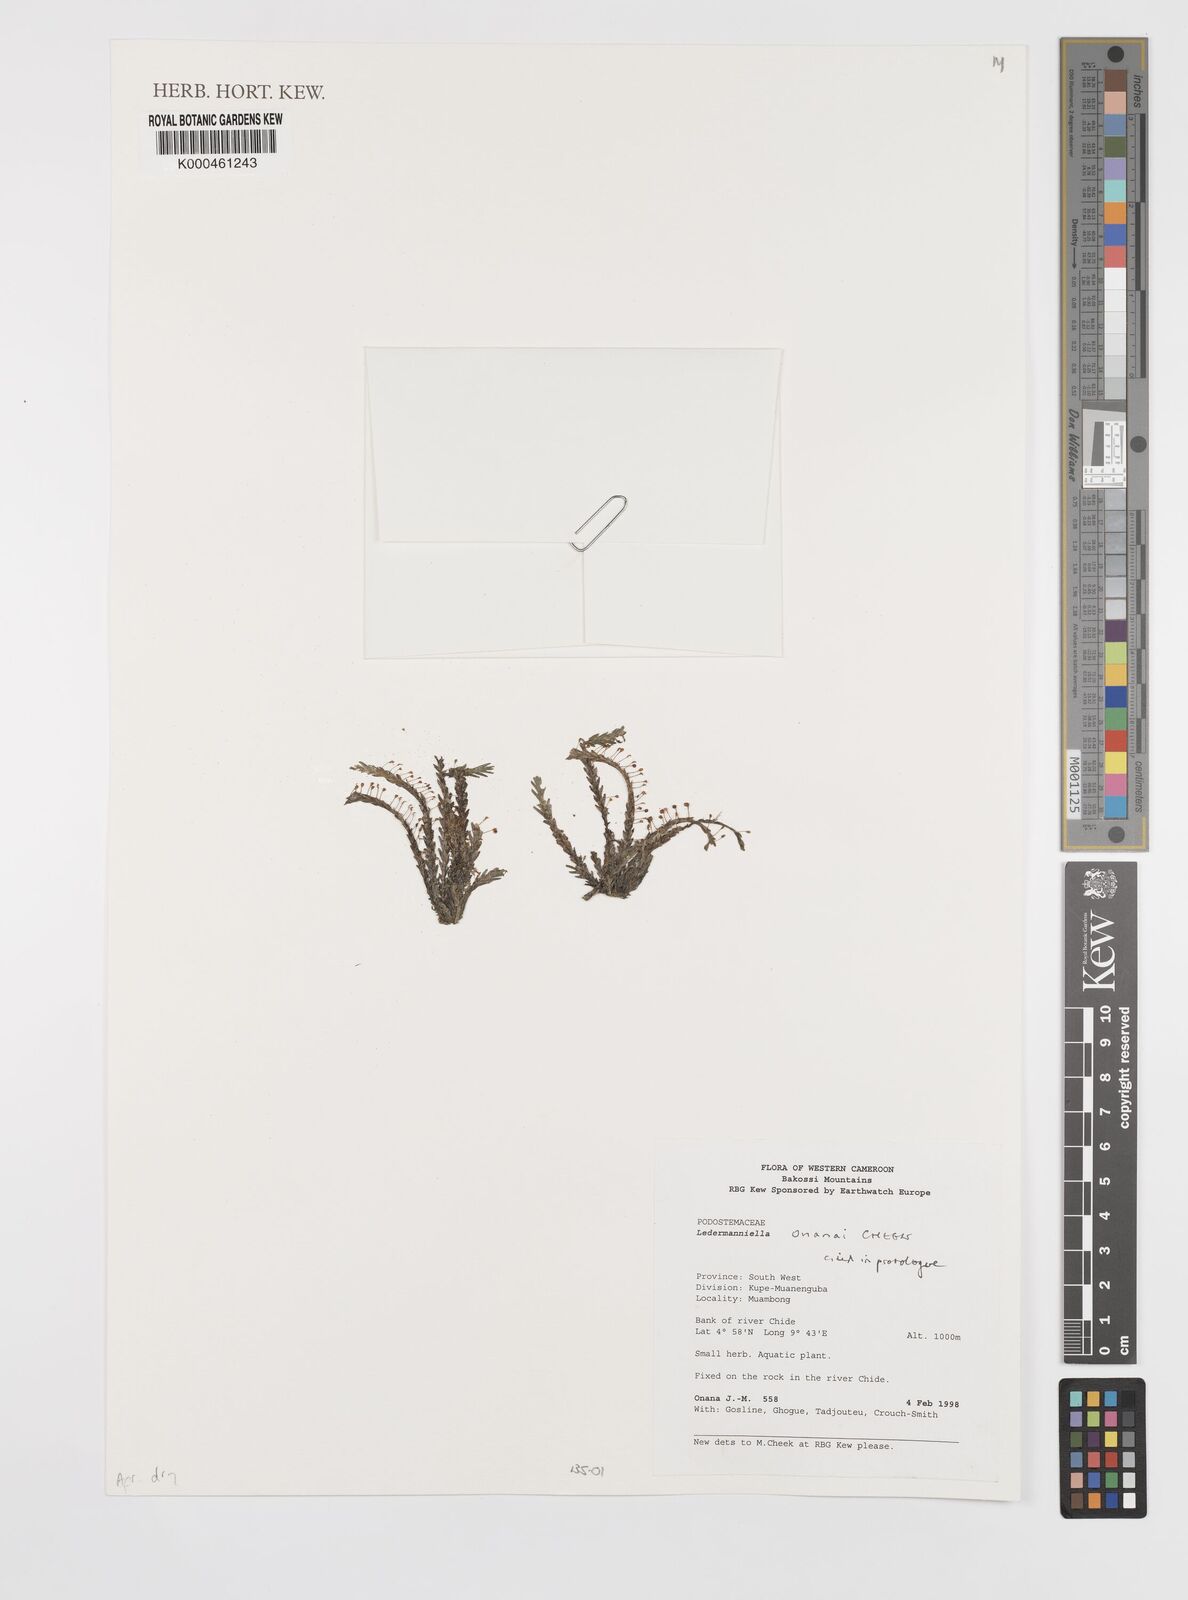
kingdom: Plantae
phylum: Tracheophyta
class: Magnoliopsida
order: Malpighiales
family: Podostemaceae
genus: Ledermanniella
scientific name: Ledermanniella onanae
